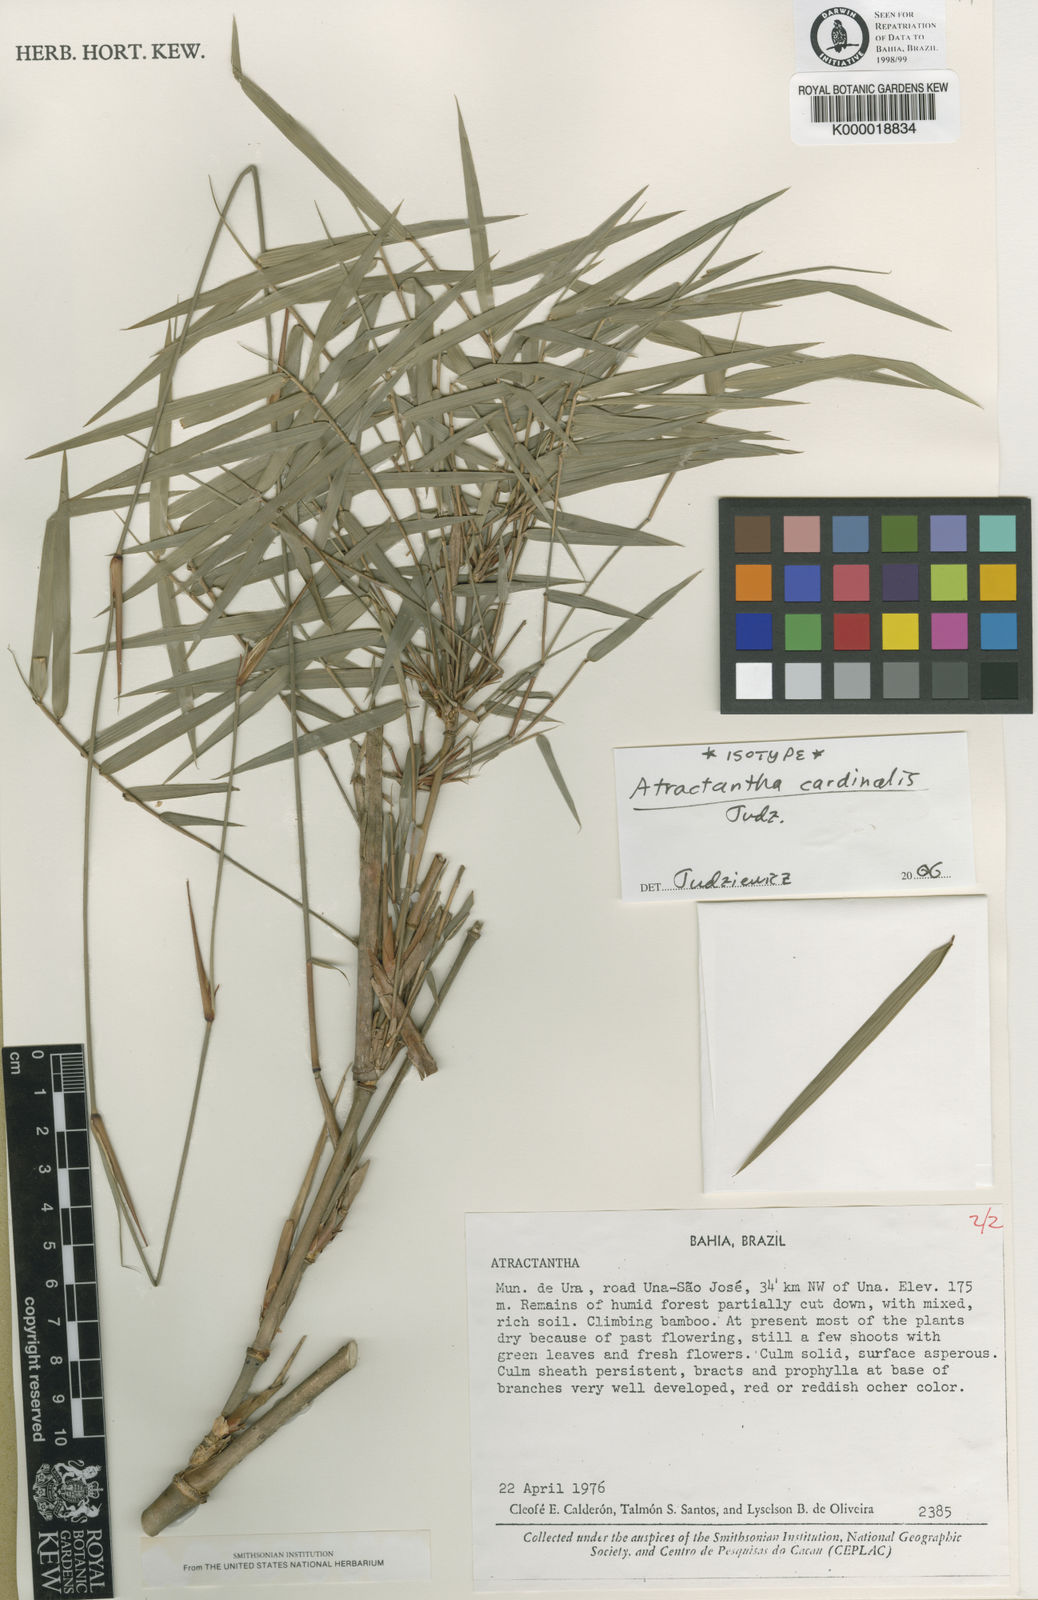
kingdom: Plantae
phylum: Tracheophyta
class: Liliopsida
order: Poales
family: Poaceae
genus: Atractantha
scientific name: Atractantha cardinalis
